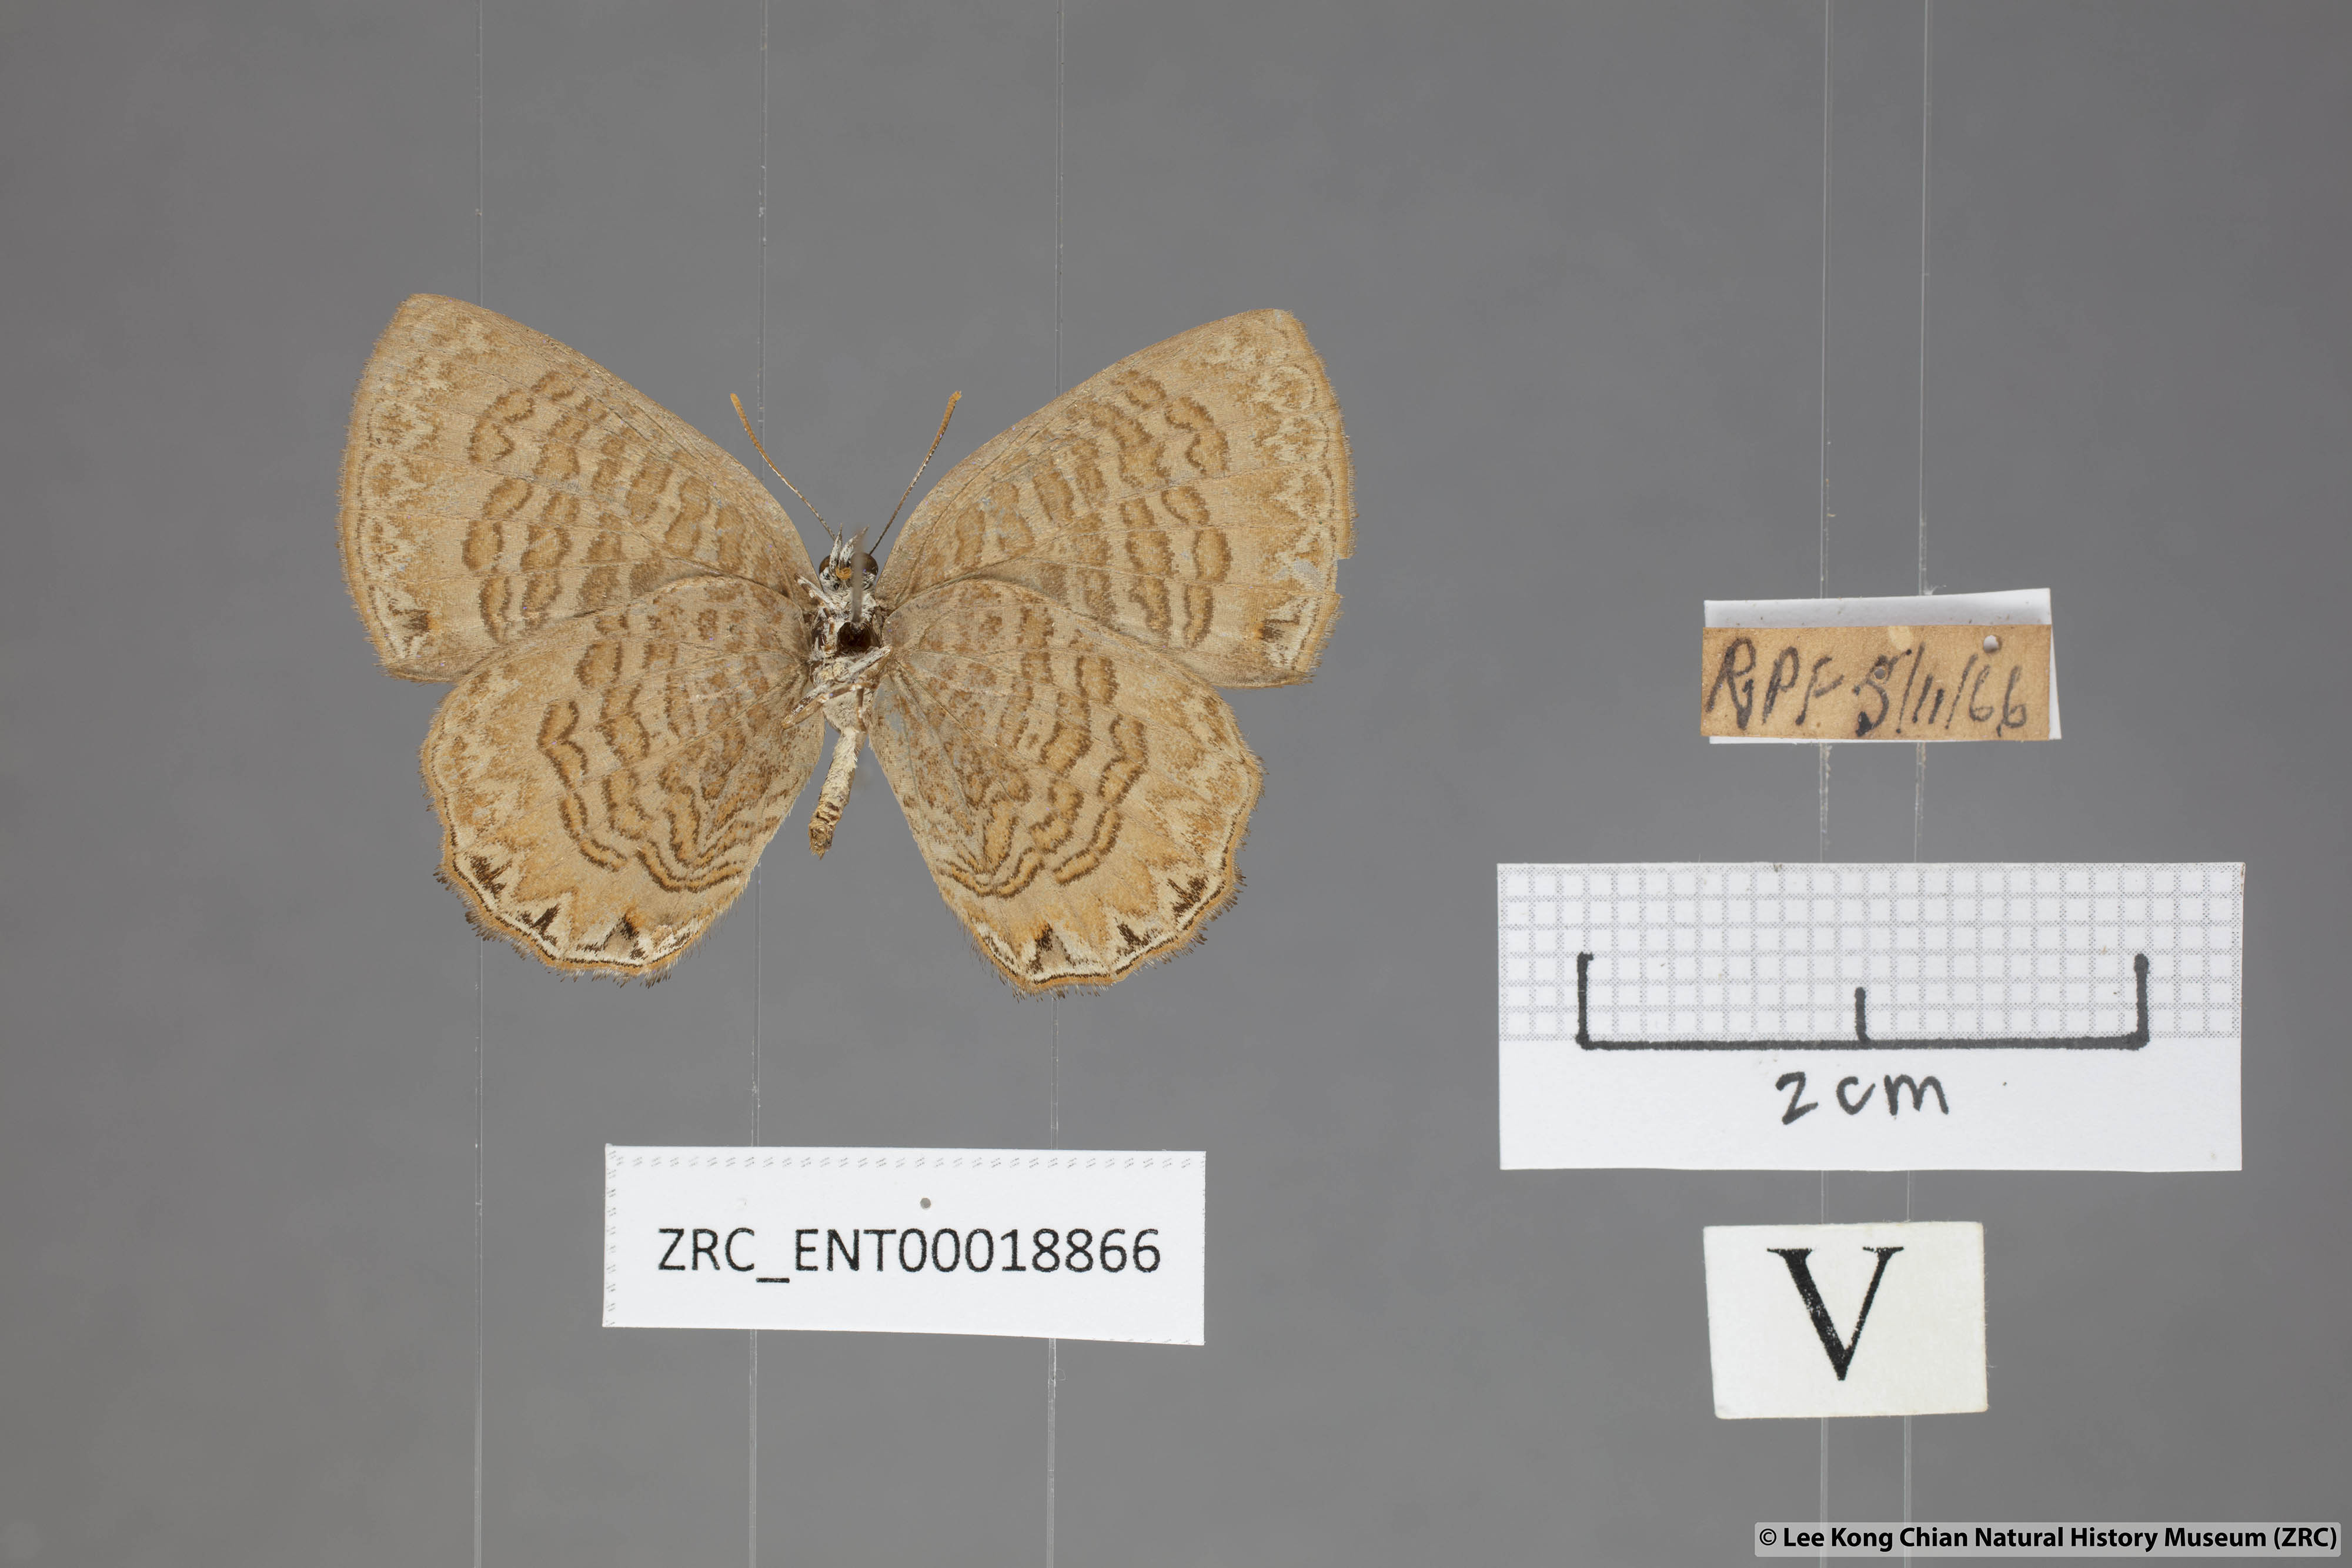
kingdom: Animalia
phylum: Arthropoda
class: Insecta
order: Lepidoptera
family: Lycaenidae
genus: Poritia
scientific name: Poritia sumatrae
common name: Sumatran gem
